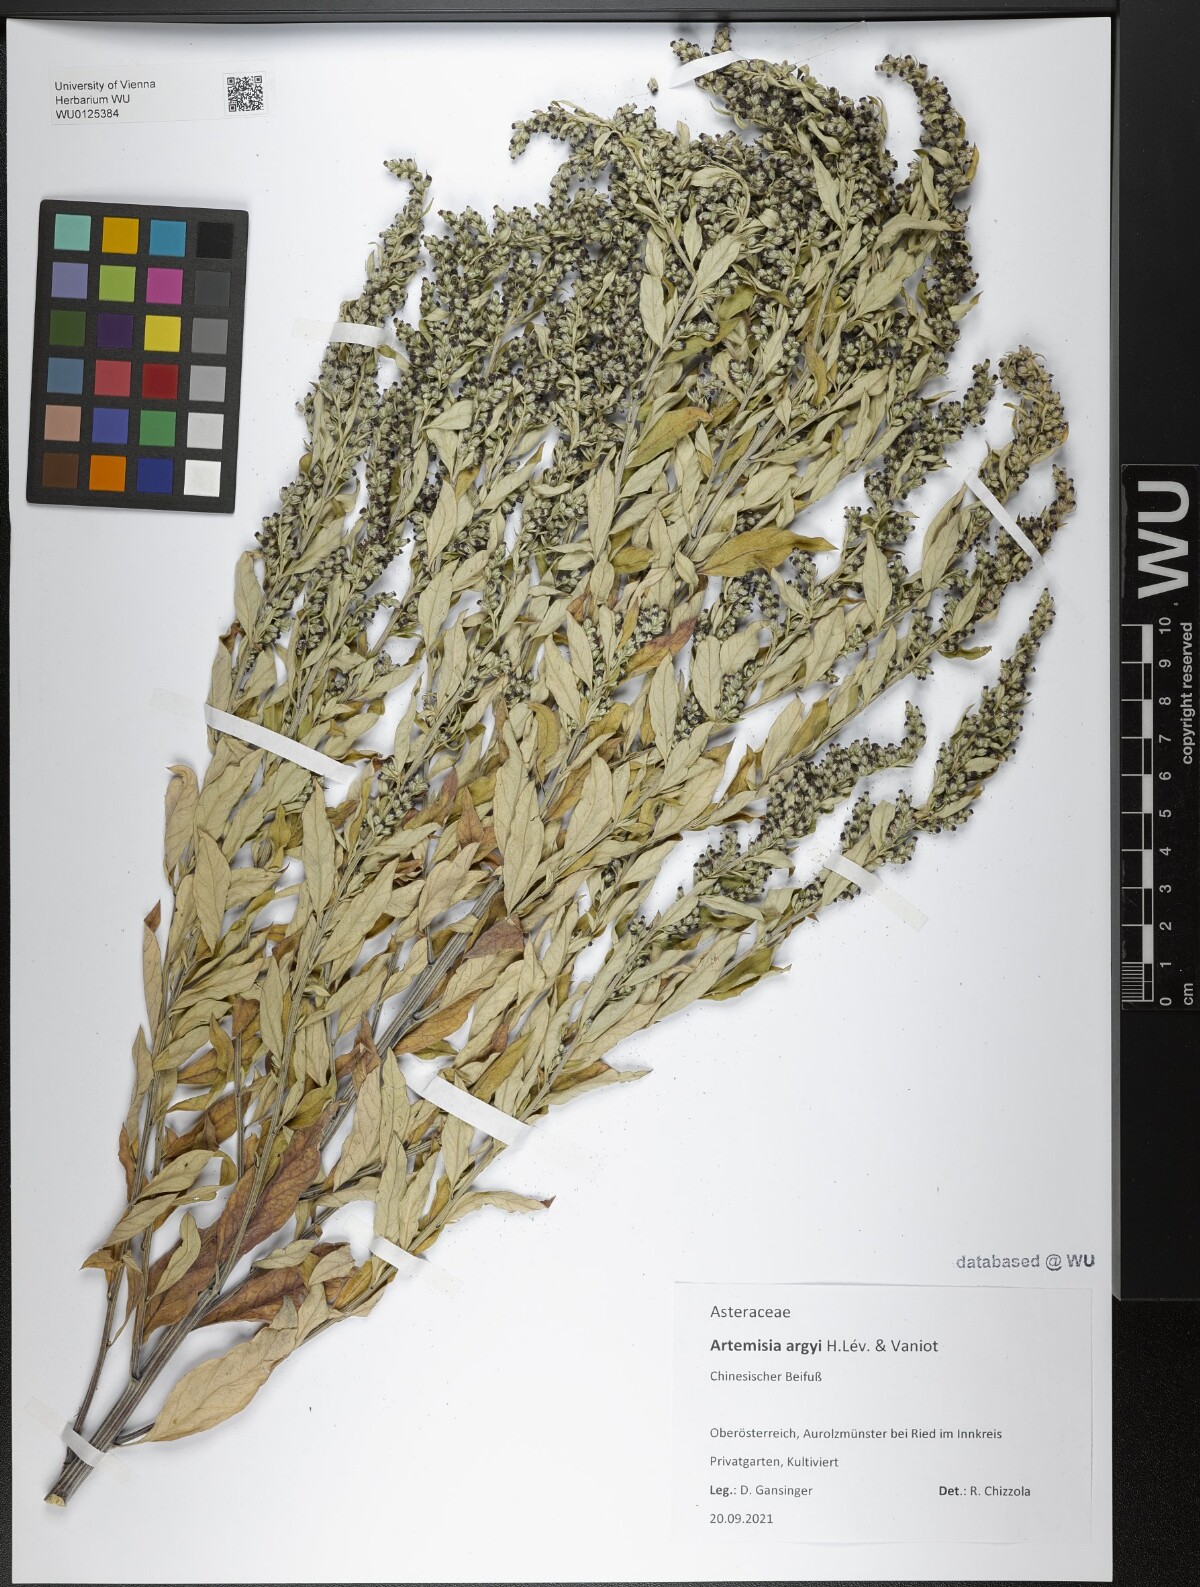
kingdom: Plantae
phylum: Tracheophyta
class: Magnoliopsida
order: Asterales
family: Asteraceae
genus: Artemisia
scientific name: Artemisia argyi
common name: Chinese mugwort
